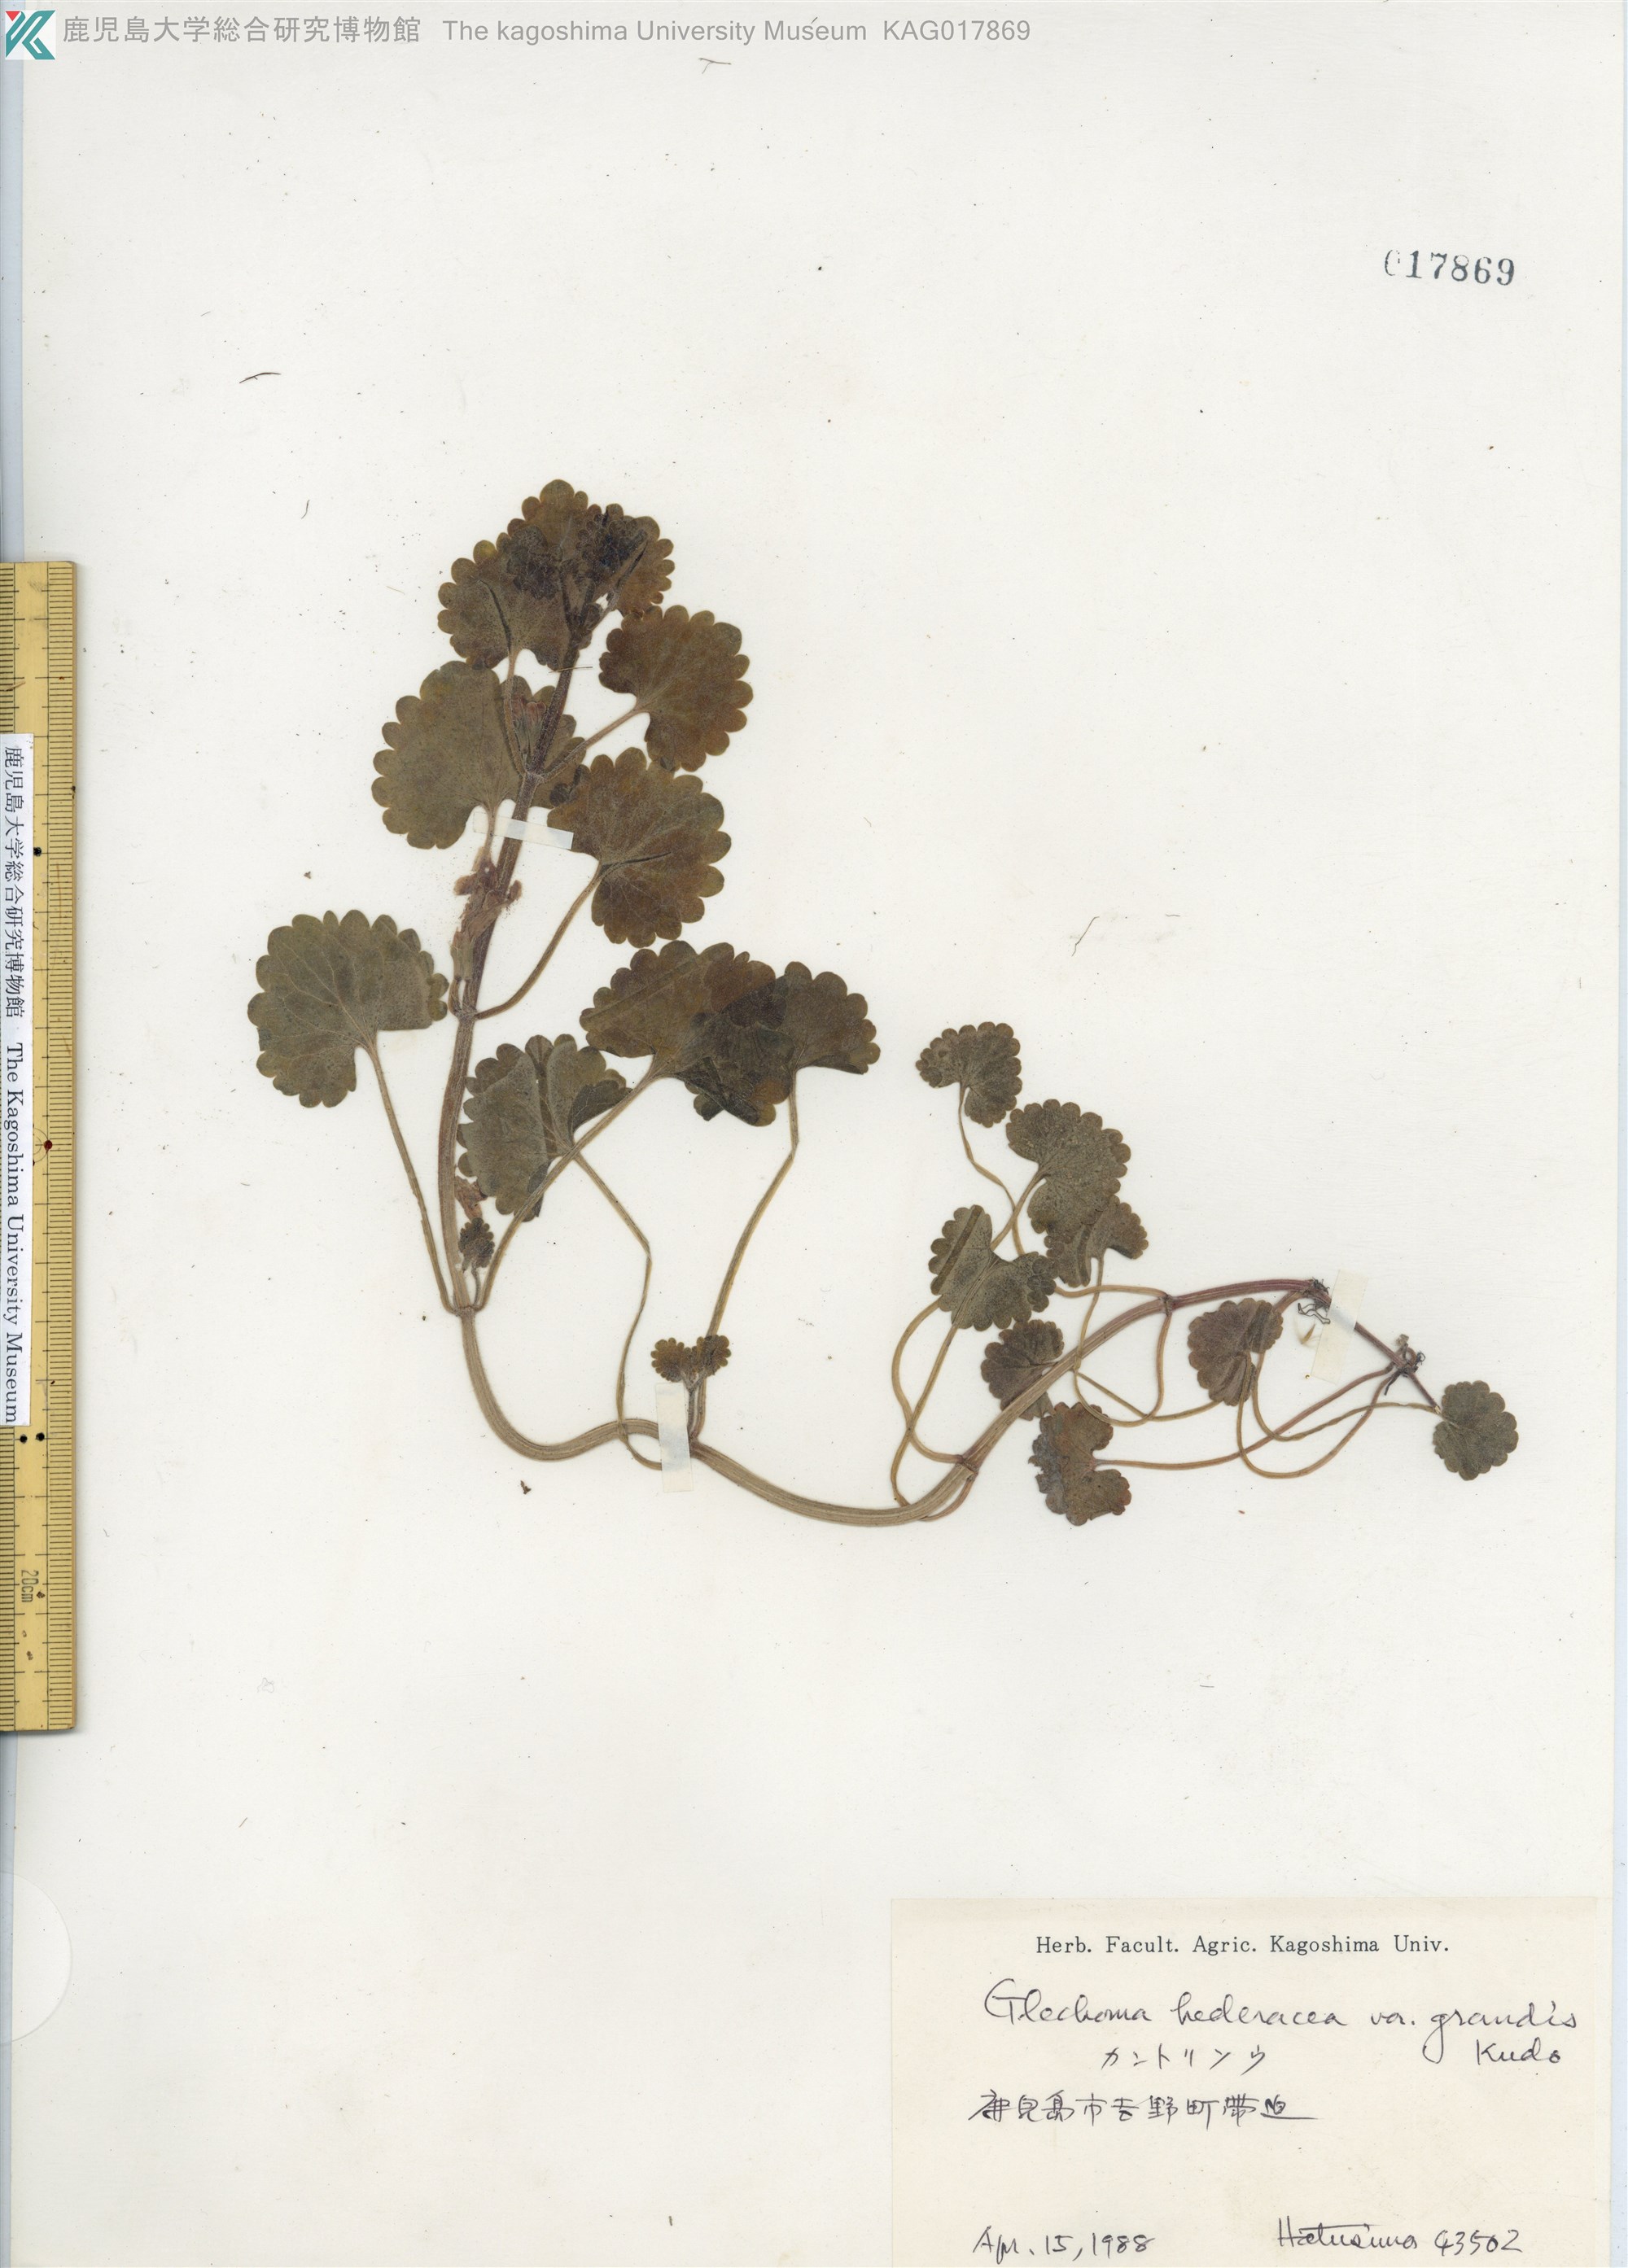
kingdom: Plantae
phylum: Tracheophyta
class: Magnoliopsida
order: Lamiales
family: Lamiaceae
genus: Glechoma
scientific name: Glechoma grandis
